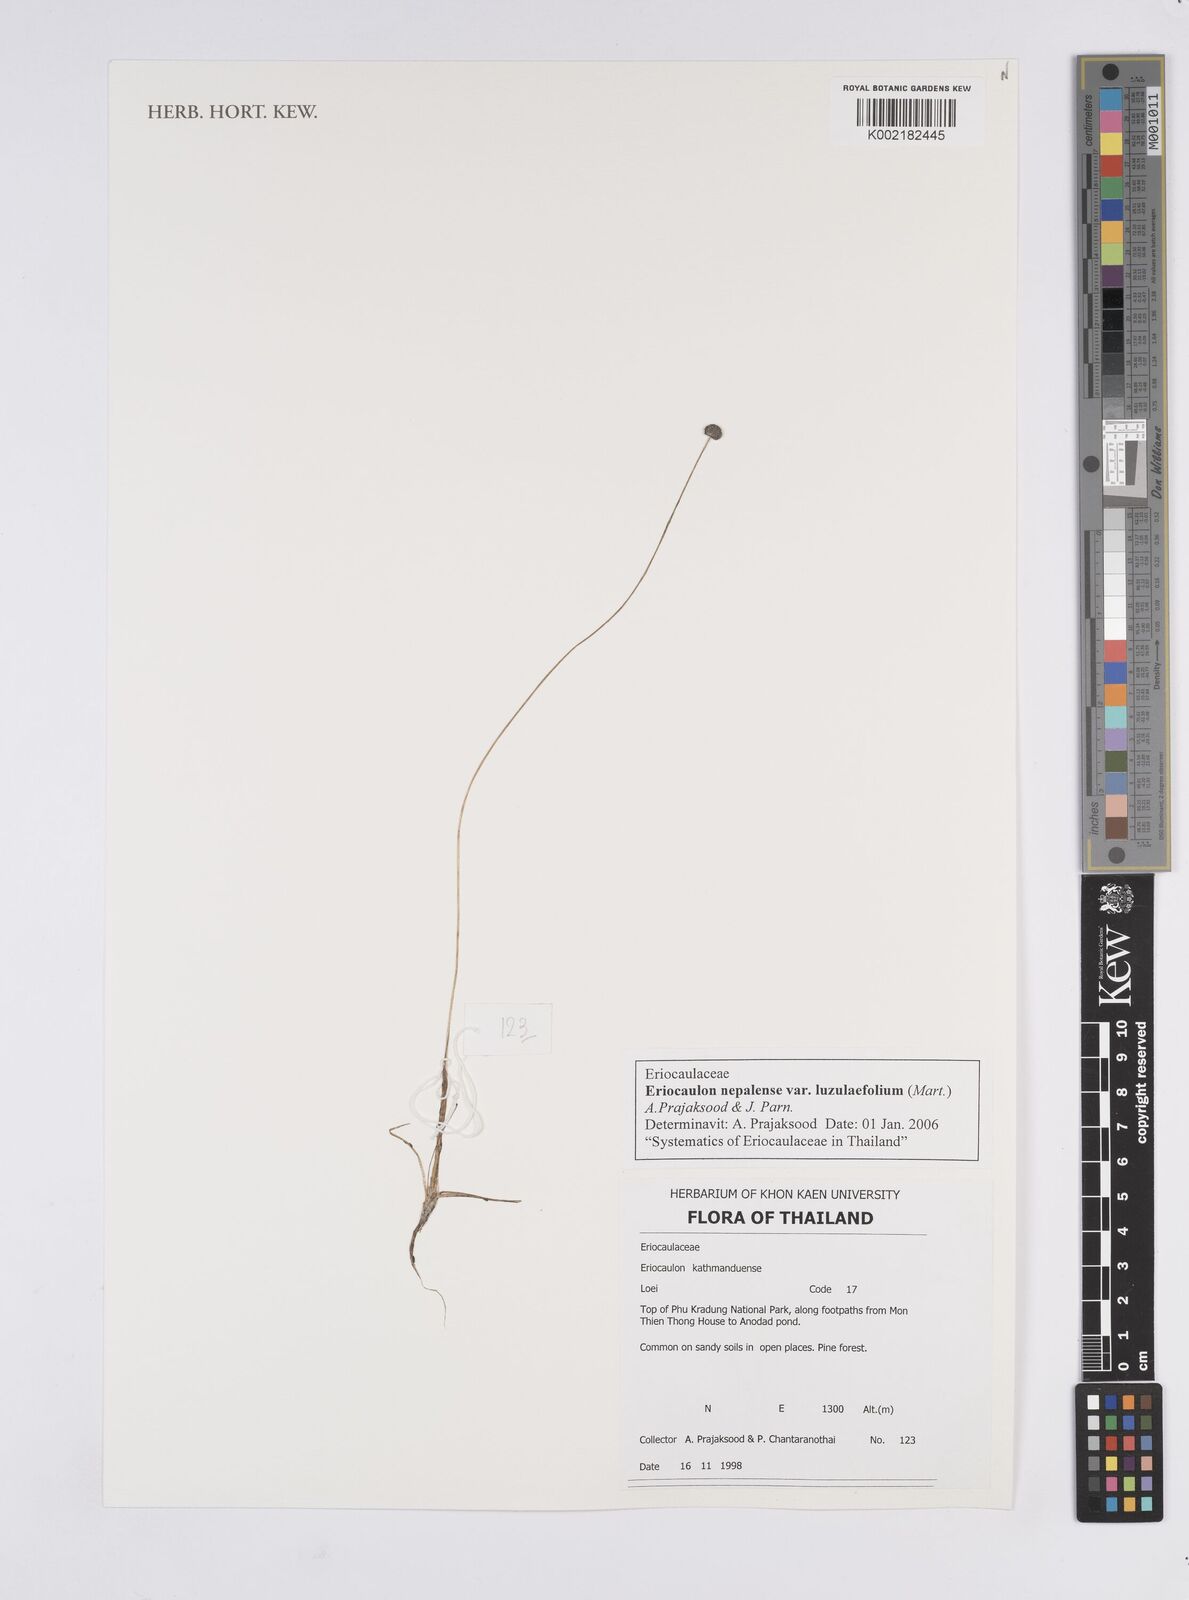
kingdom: Plantae
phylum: Tracheophyta
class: Liliopsida
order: Poales
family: Eriocaulaceae
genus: Eriocaulon
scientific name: Eriocaulon nepalense
